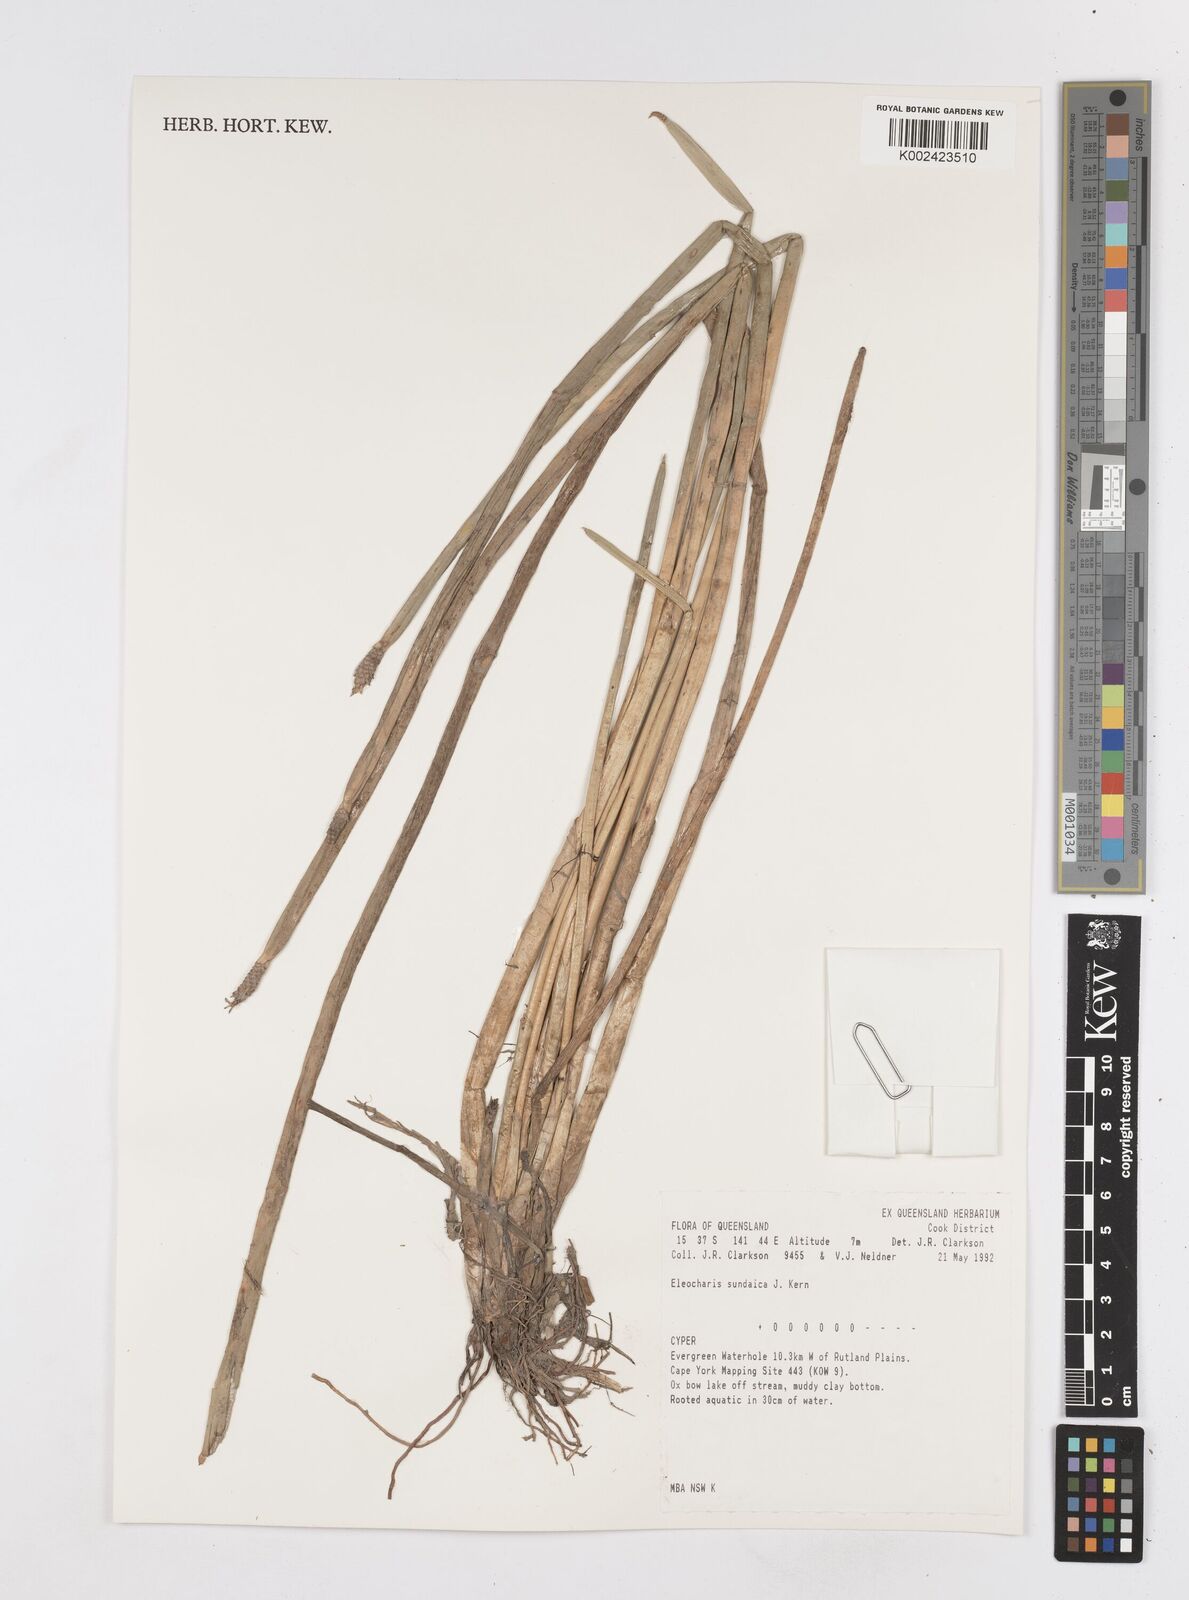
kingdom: Plantae
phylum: Tracheophyta
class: Liliopsida
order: Poales
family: Cyperaceae
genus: Eleocharis
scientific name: Eleocharis sundaica
